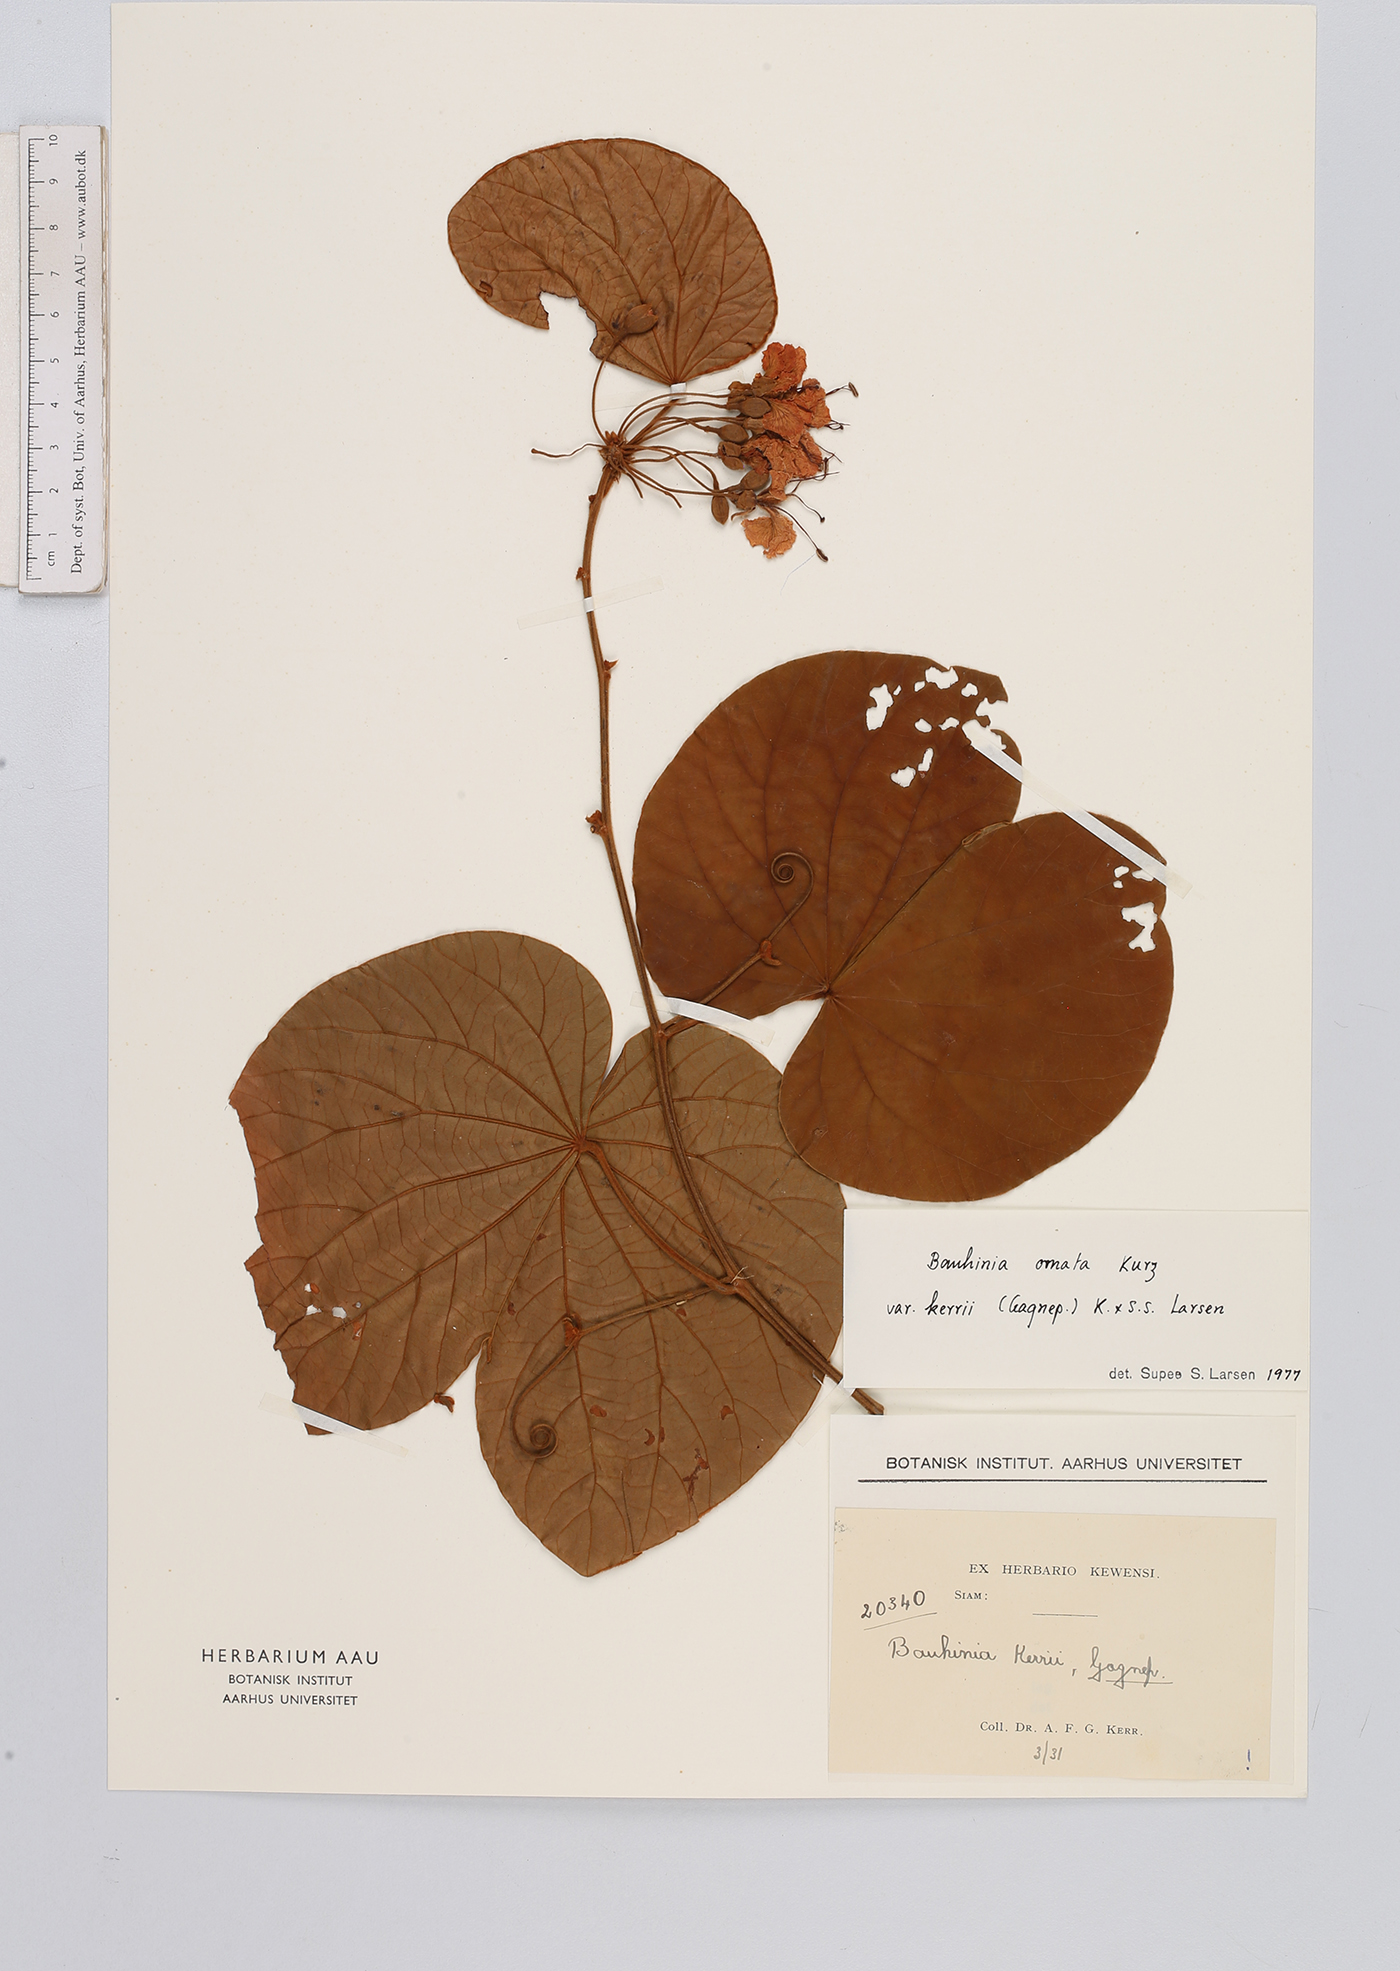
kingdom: Plantae
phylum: Tracheophyta
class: Magnoliopsida
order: Fabales
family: Fabaceae
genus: Phanera
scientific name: Phanera ornata
